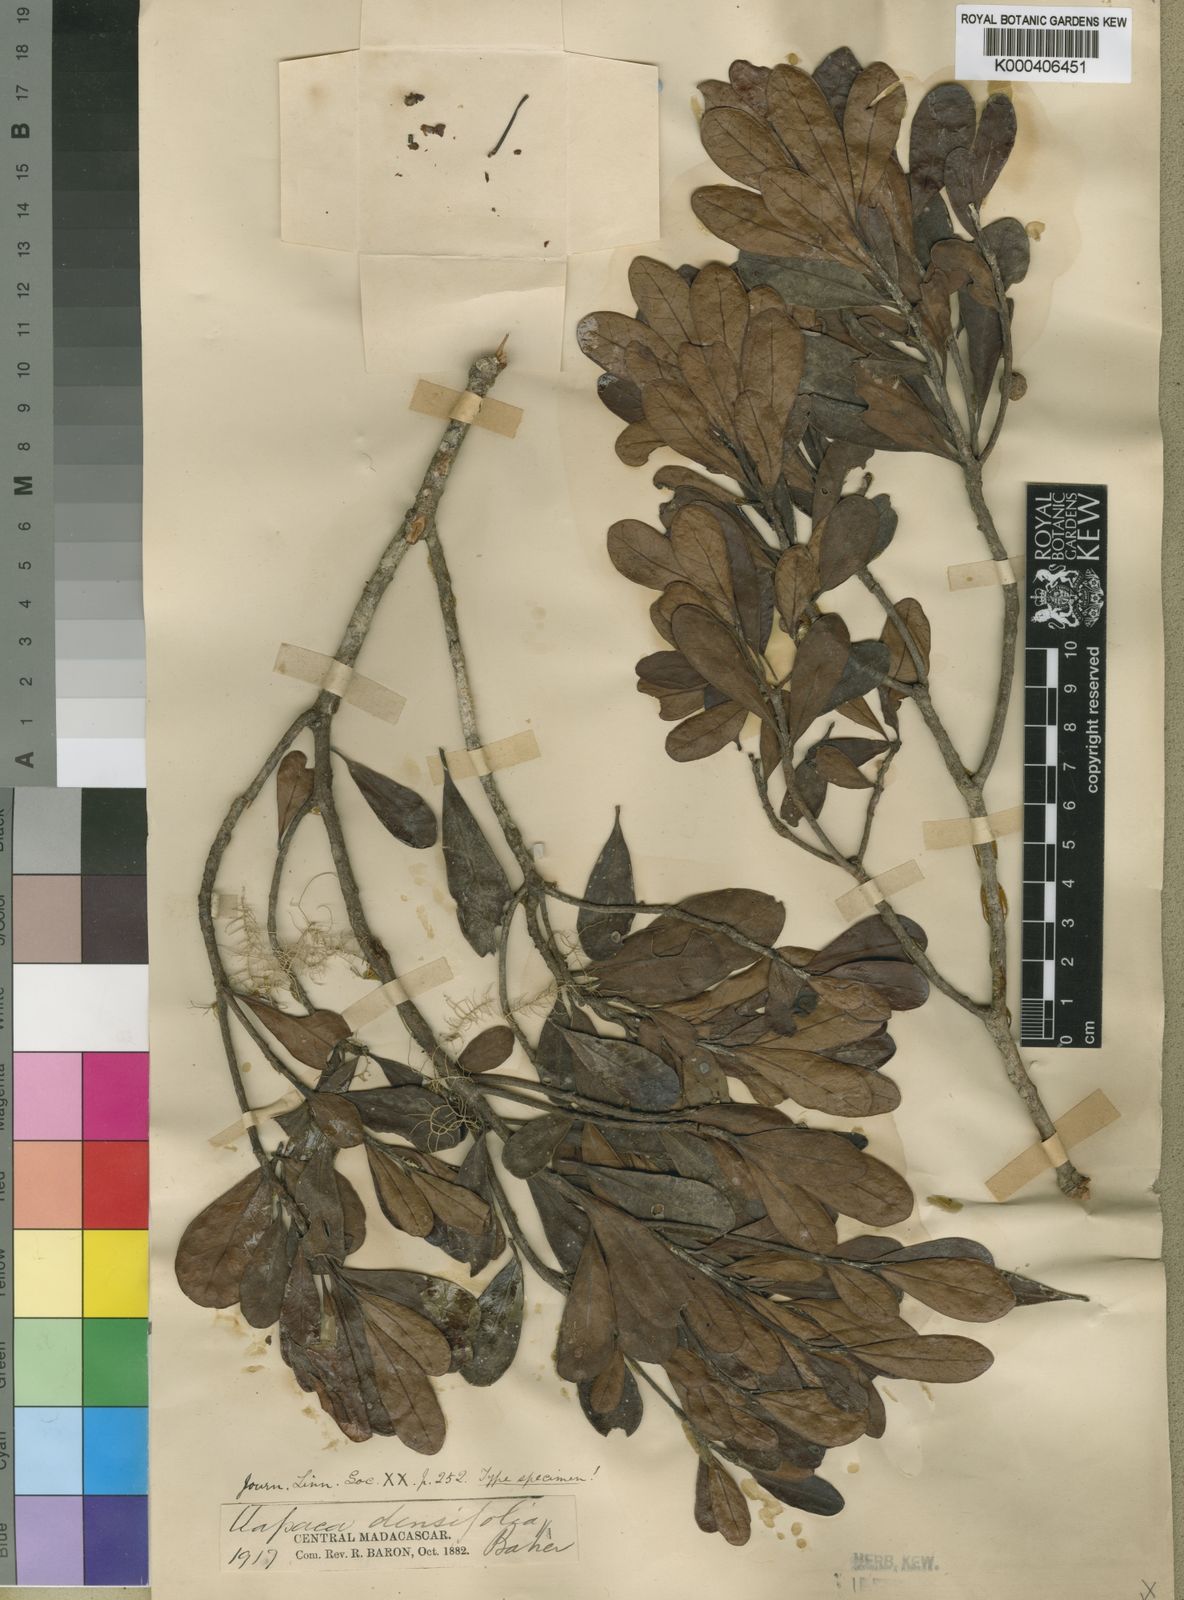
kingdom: Plantae
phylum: Tracheophyta
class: Magnoliopsida
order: Malpighiales
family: Phyllanthaceae
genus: Uapaca
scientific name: Uapaca densifolia
